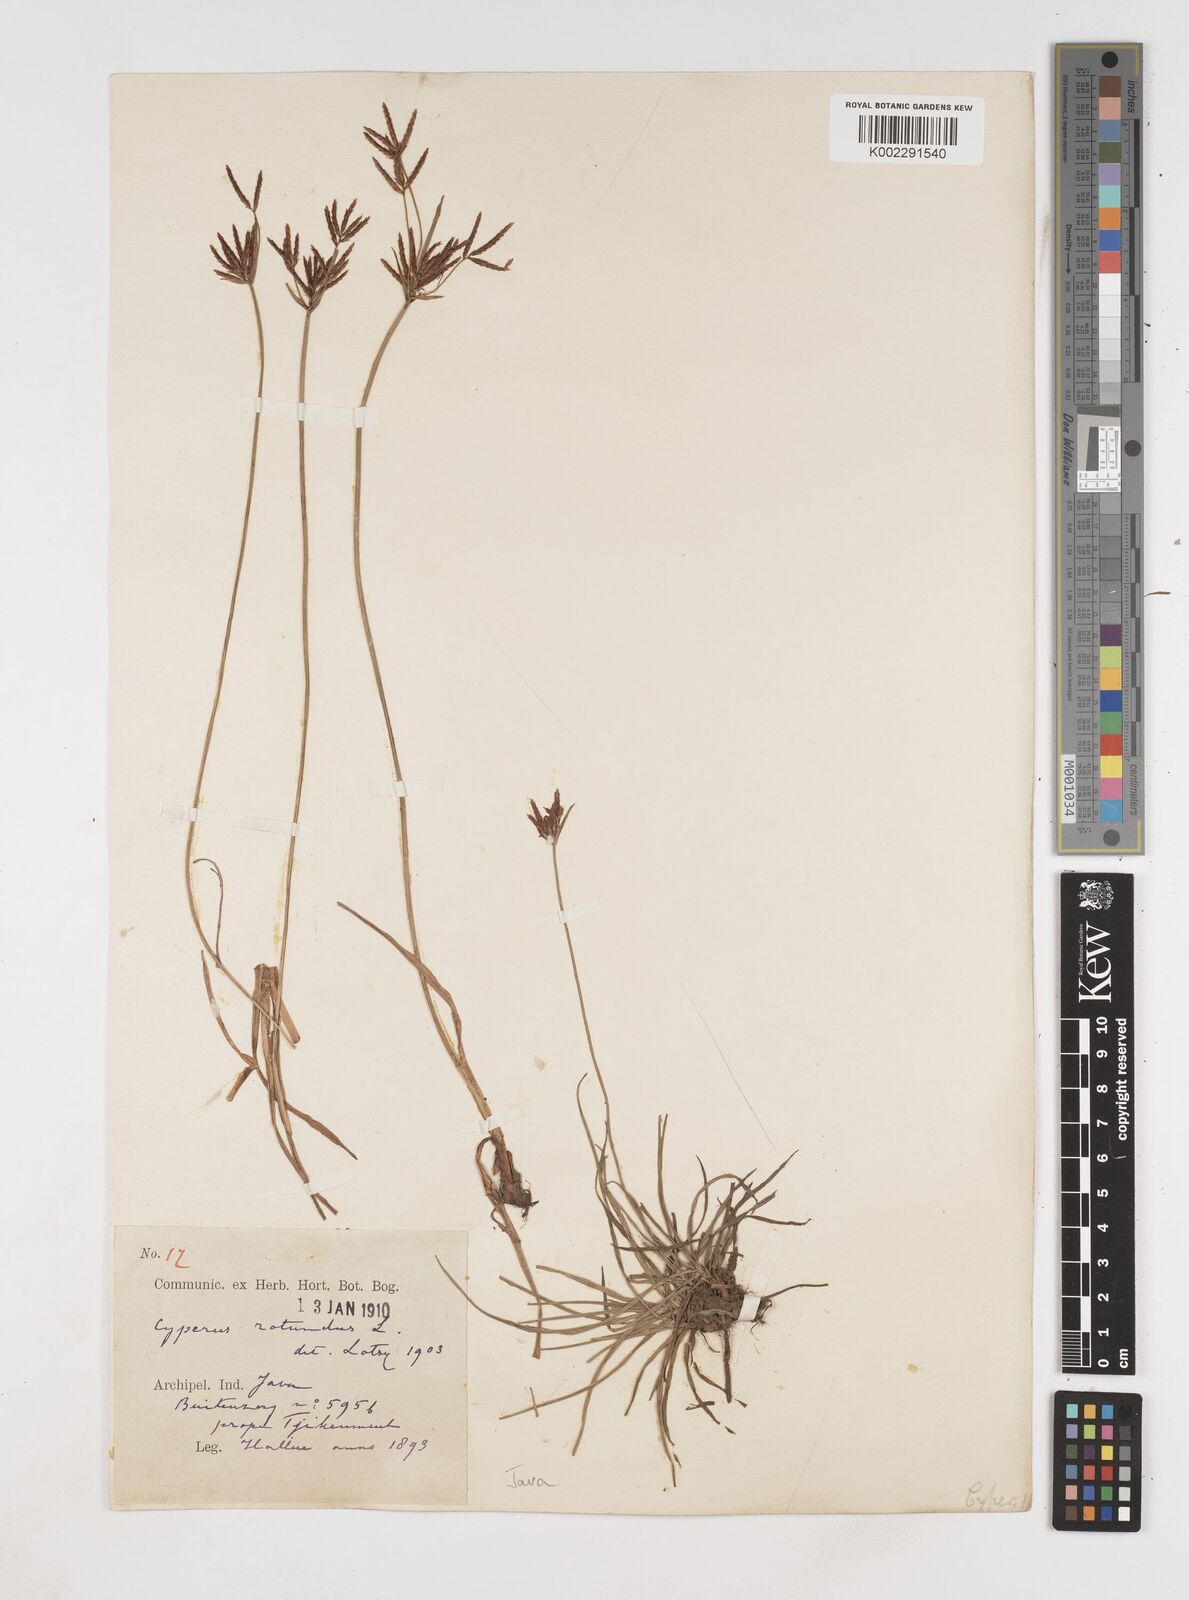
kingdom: Plantae
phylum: Tracheophyta
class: Liliopsida
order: Poales
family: Cyperaceae
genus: Cyperus
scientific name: Cyperus rotundus
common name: Nutgrass
